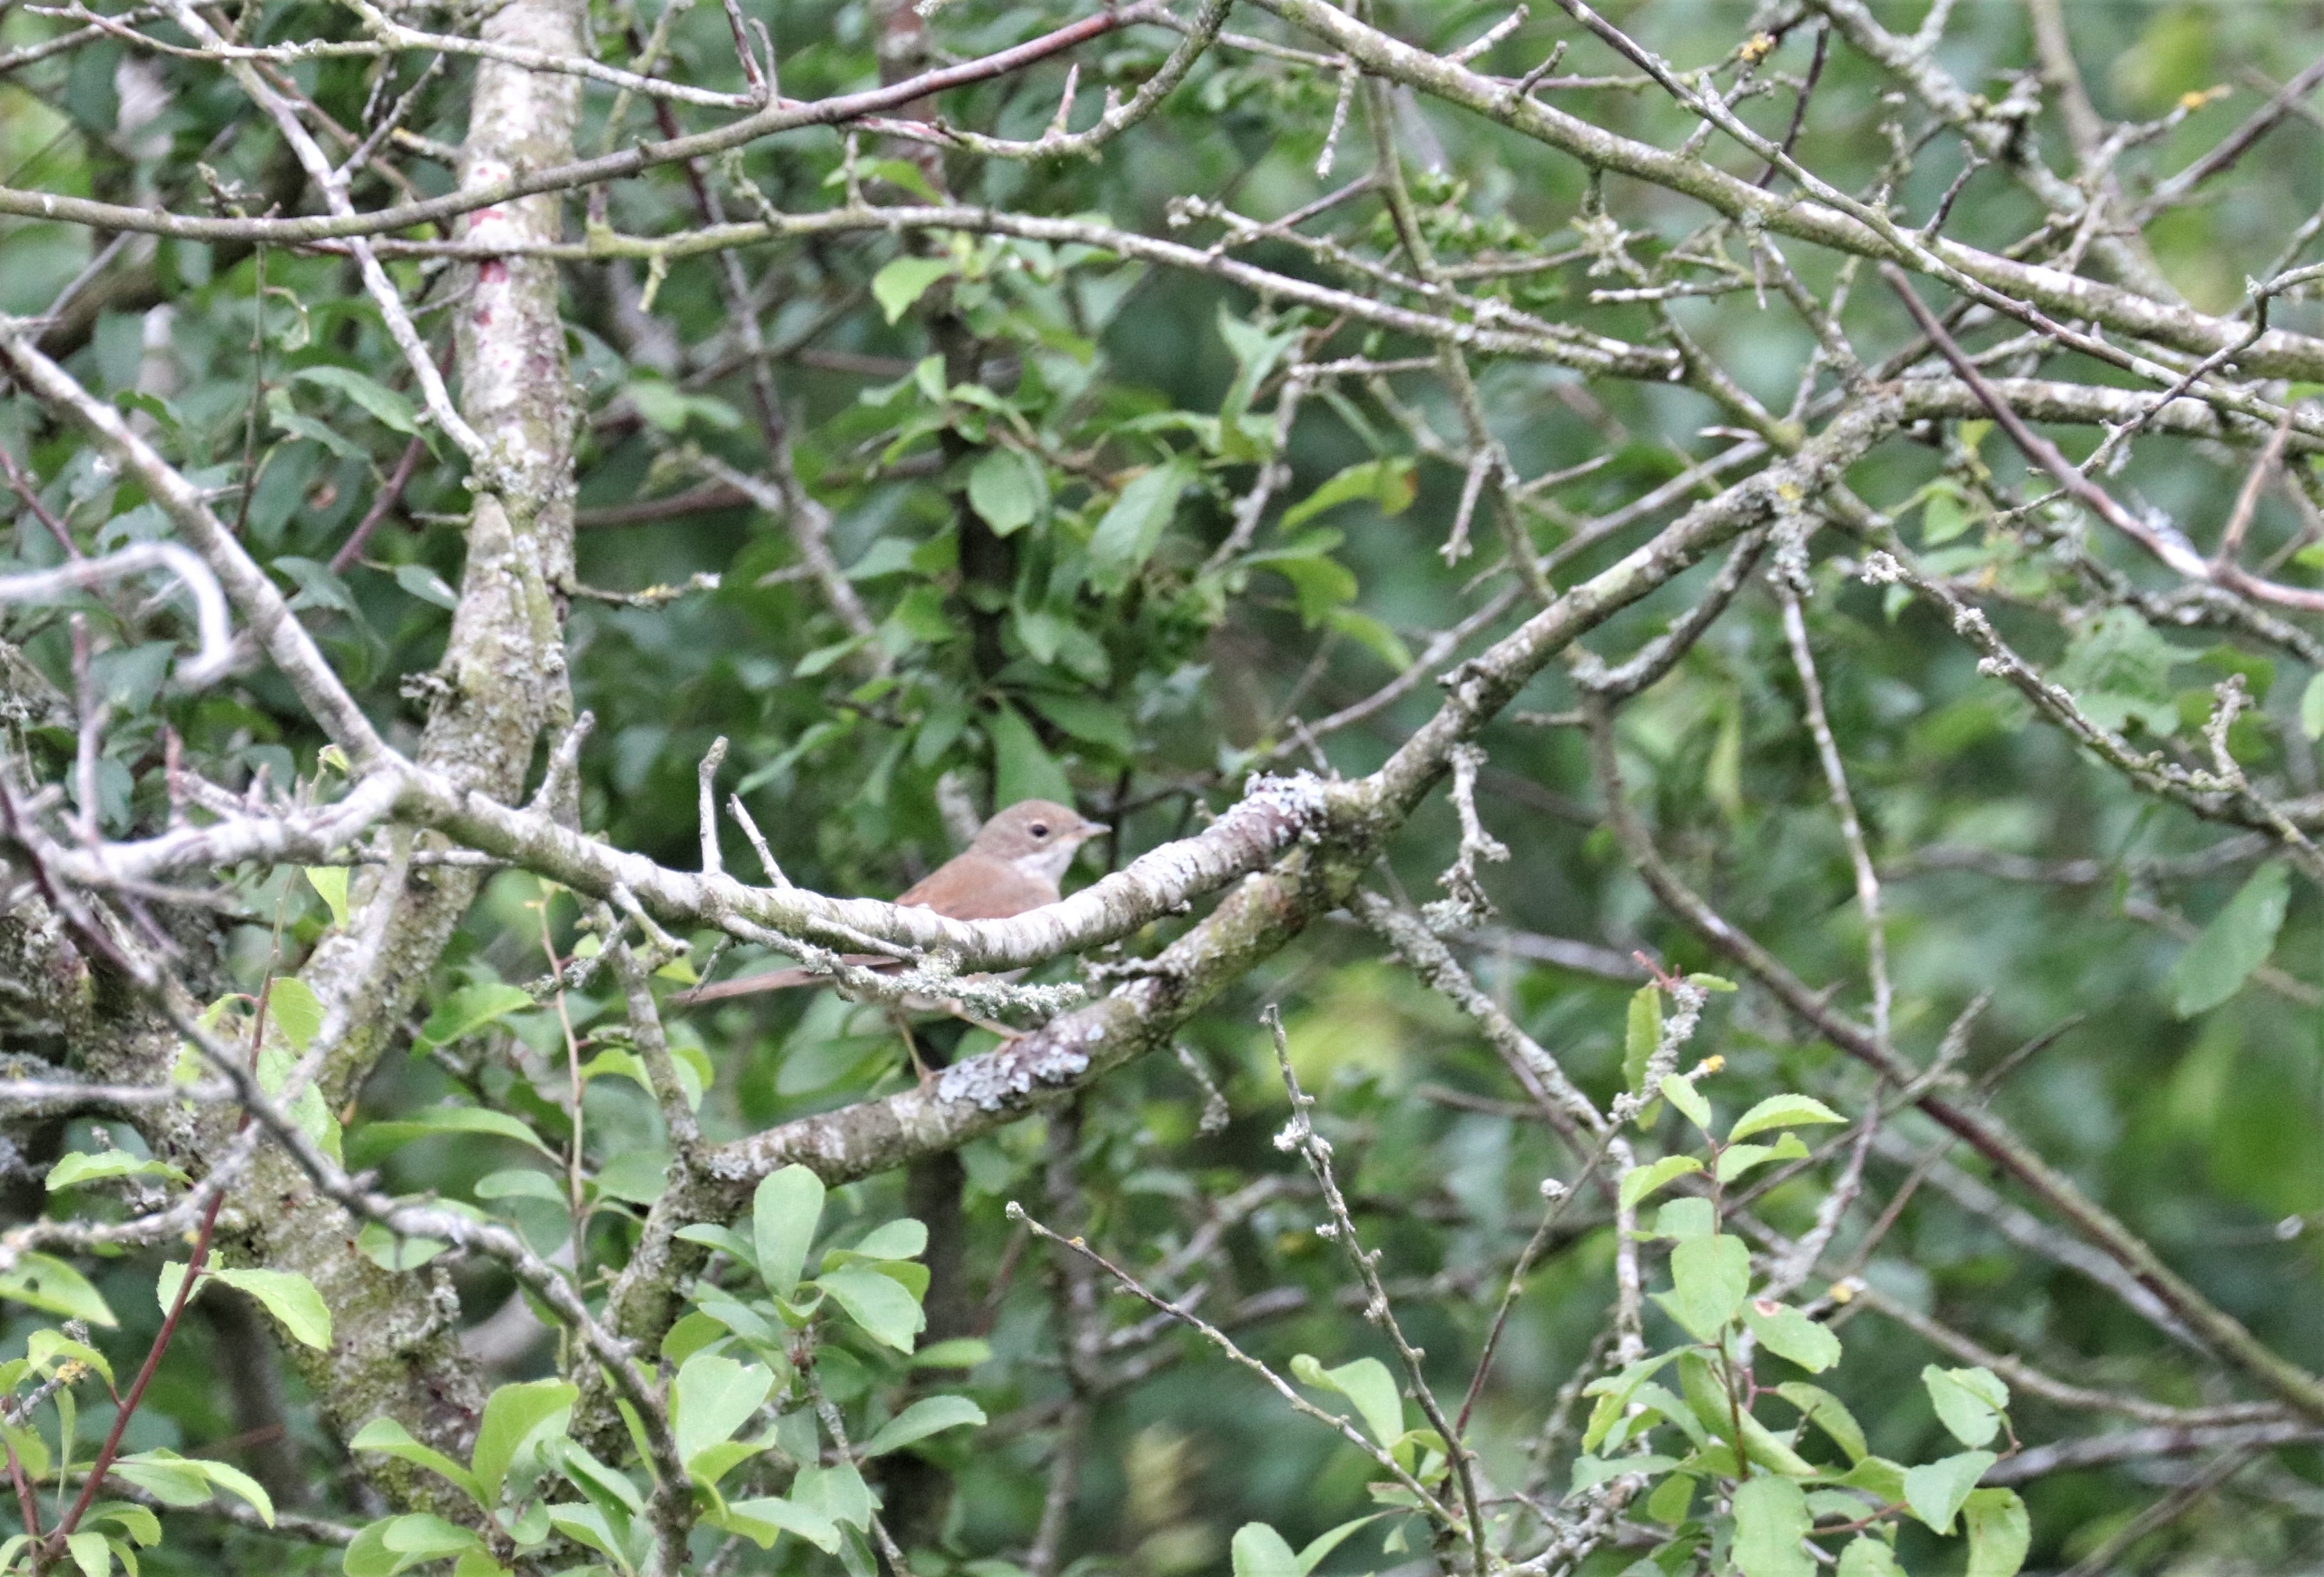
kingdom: Animalia
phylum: Chordata
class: Aves
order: Passeriformes
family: Sylviidae
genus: Sylvia
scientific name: Sylvia communis
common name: Tornsanger
